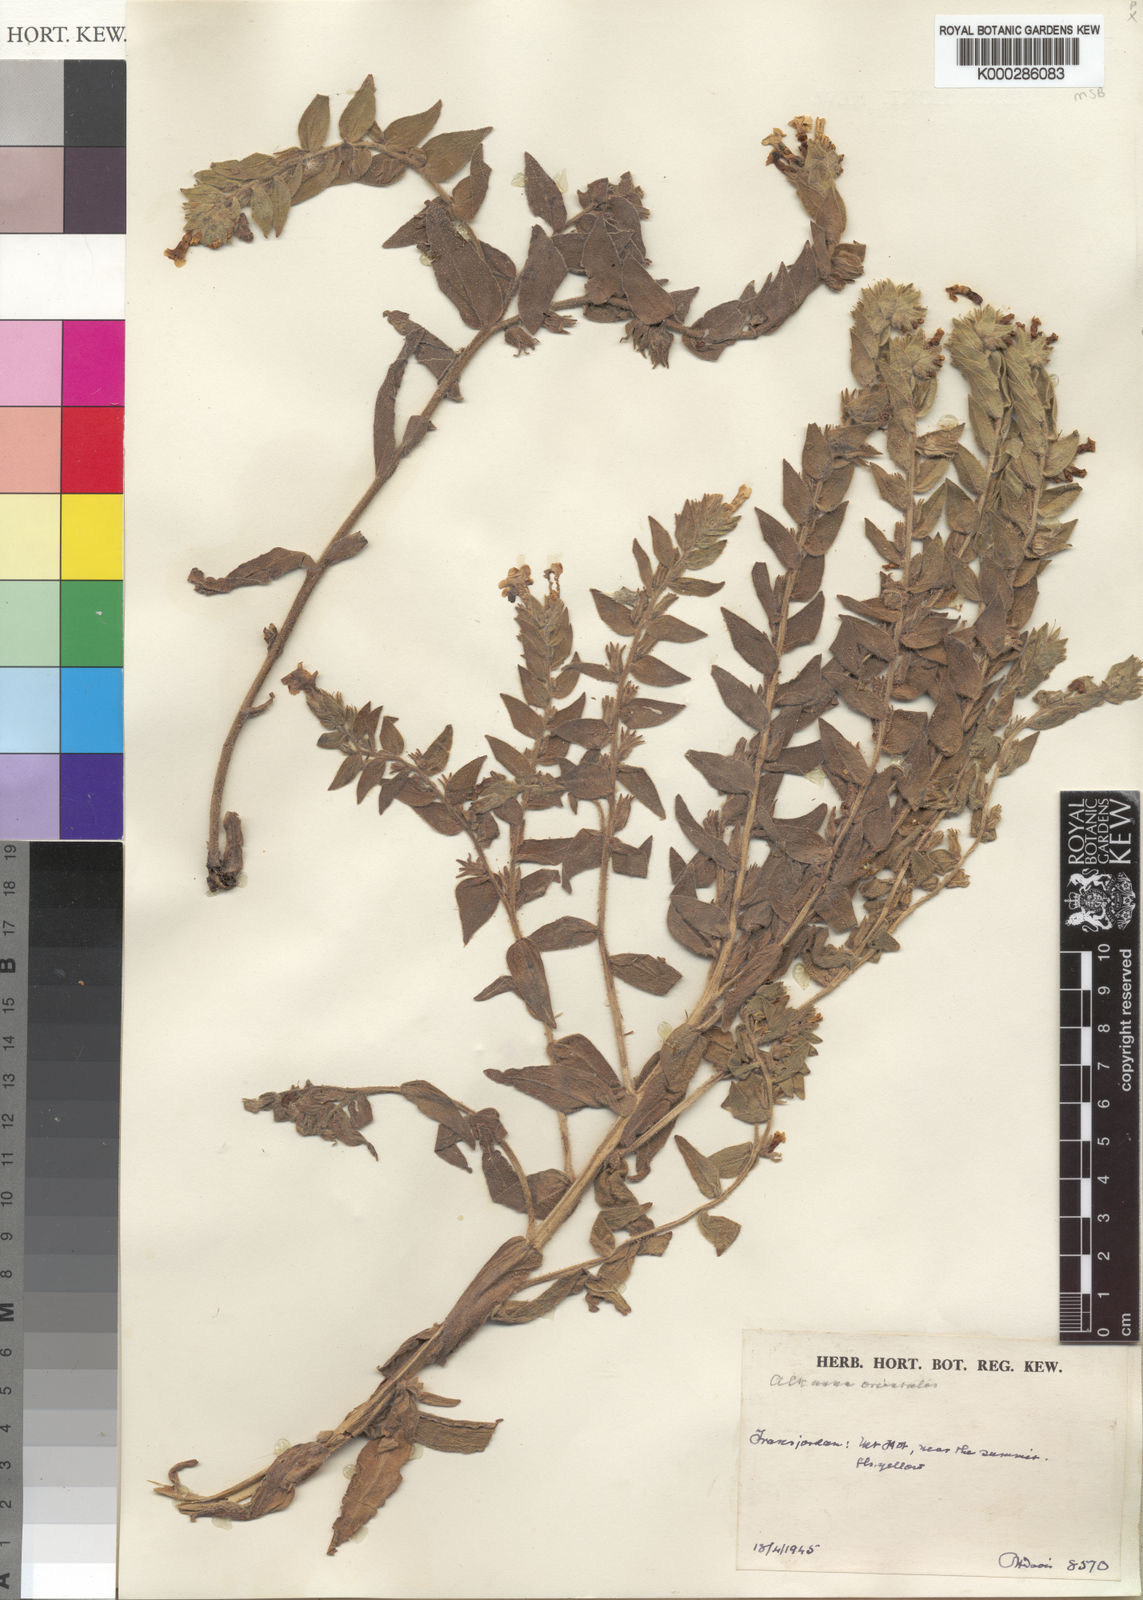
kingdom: Plantae
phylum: Tracheophyta
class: Magnoliopsida
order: Boraginales
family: Boraginaceae
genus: Alkanna
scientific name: Alkanna orientalis
